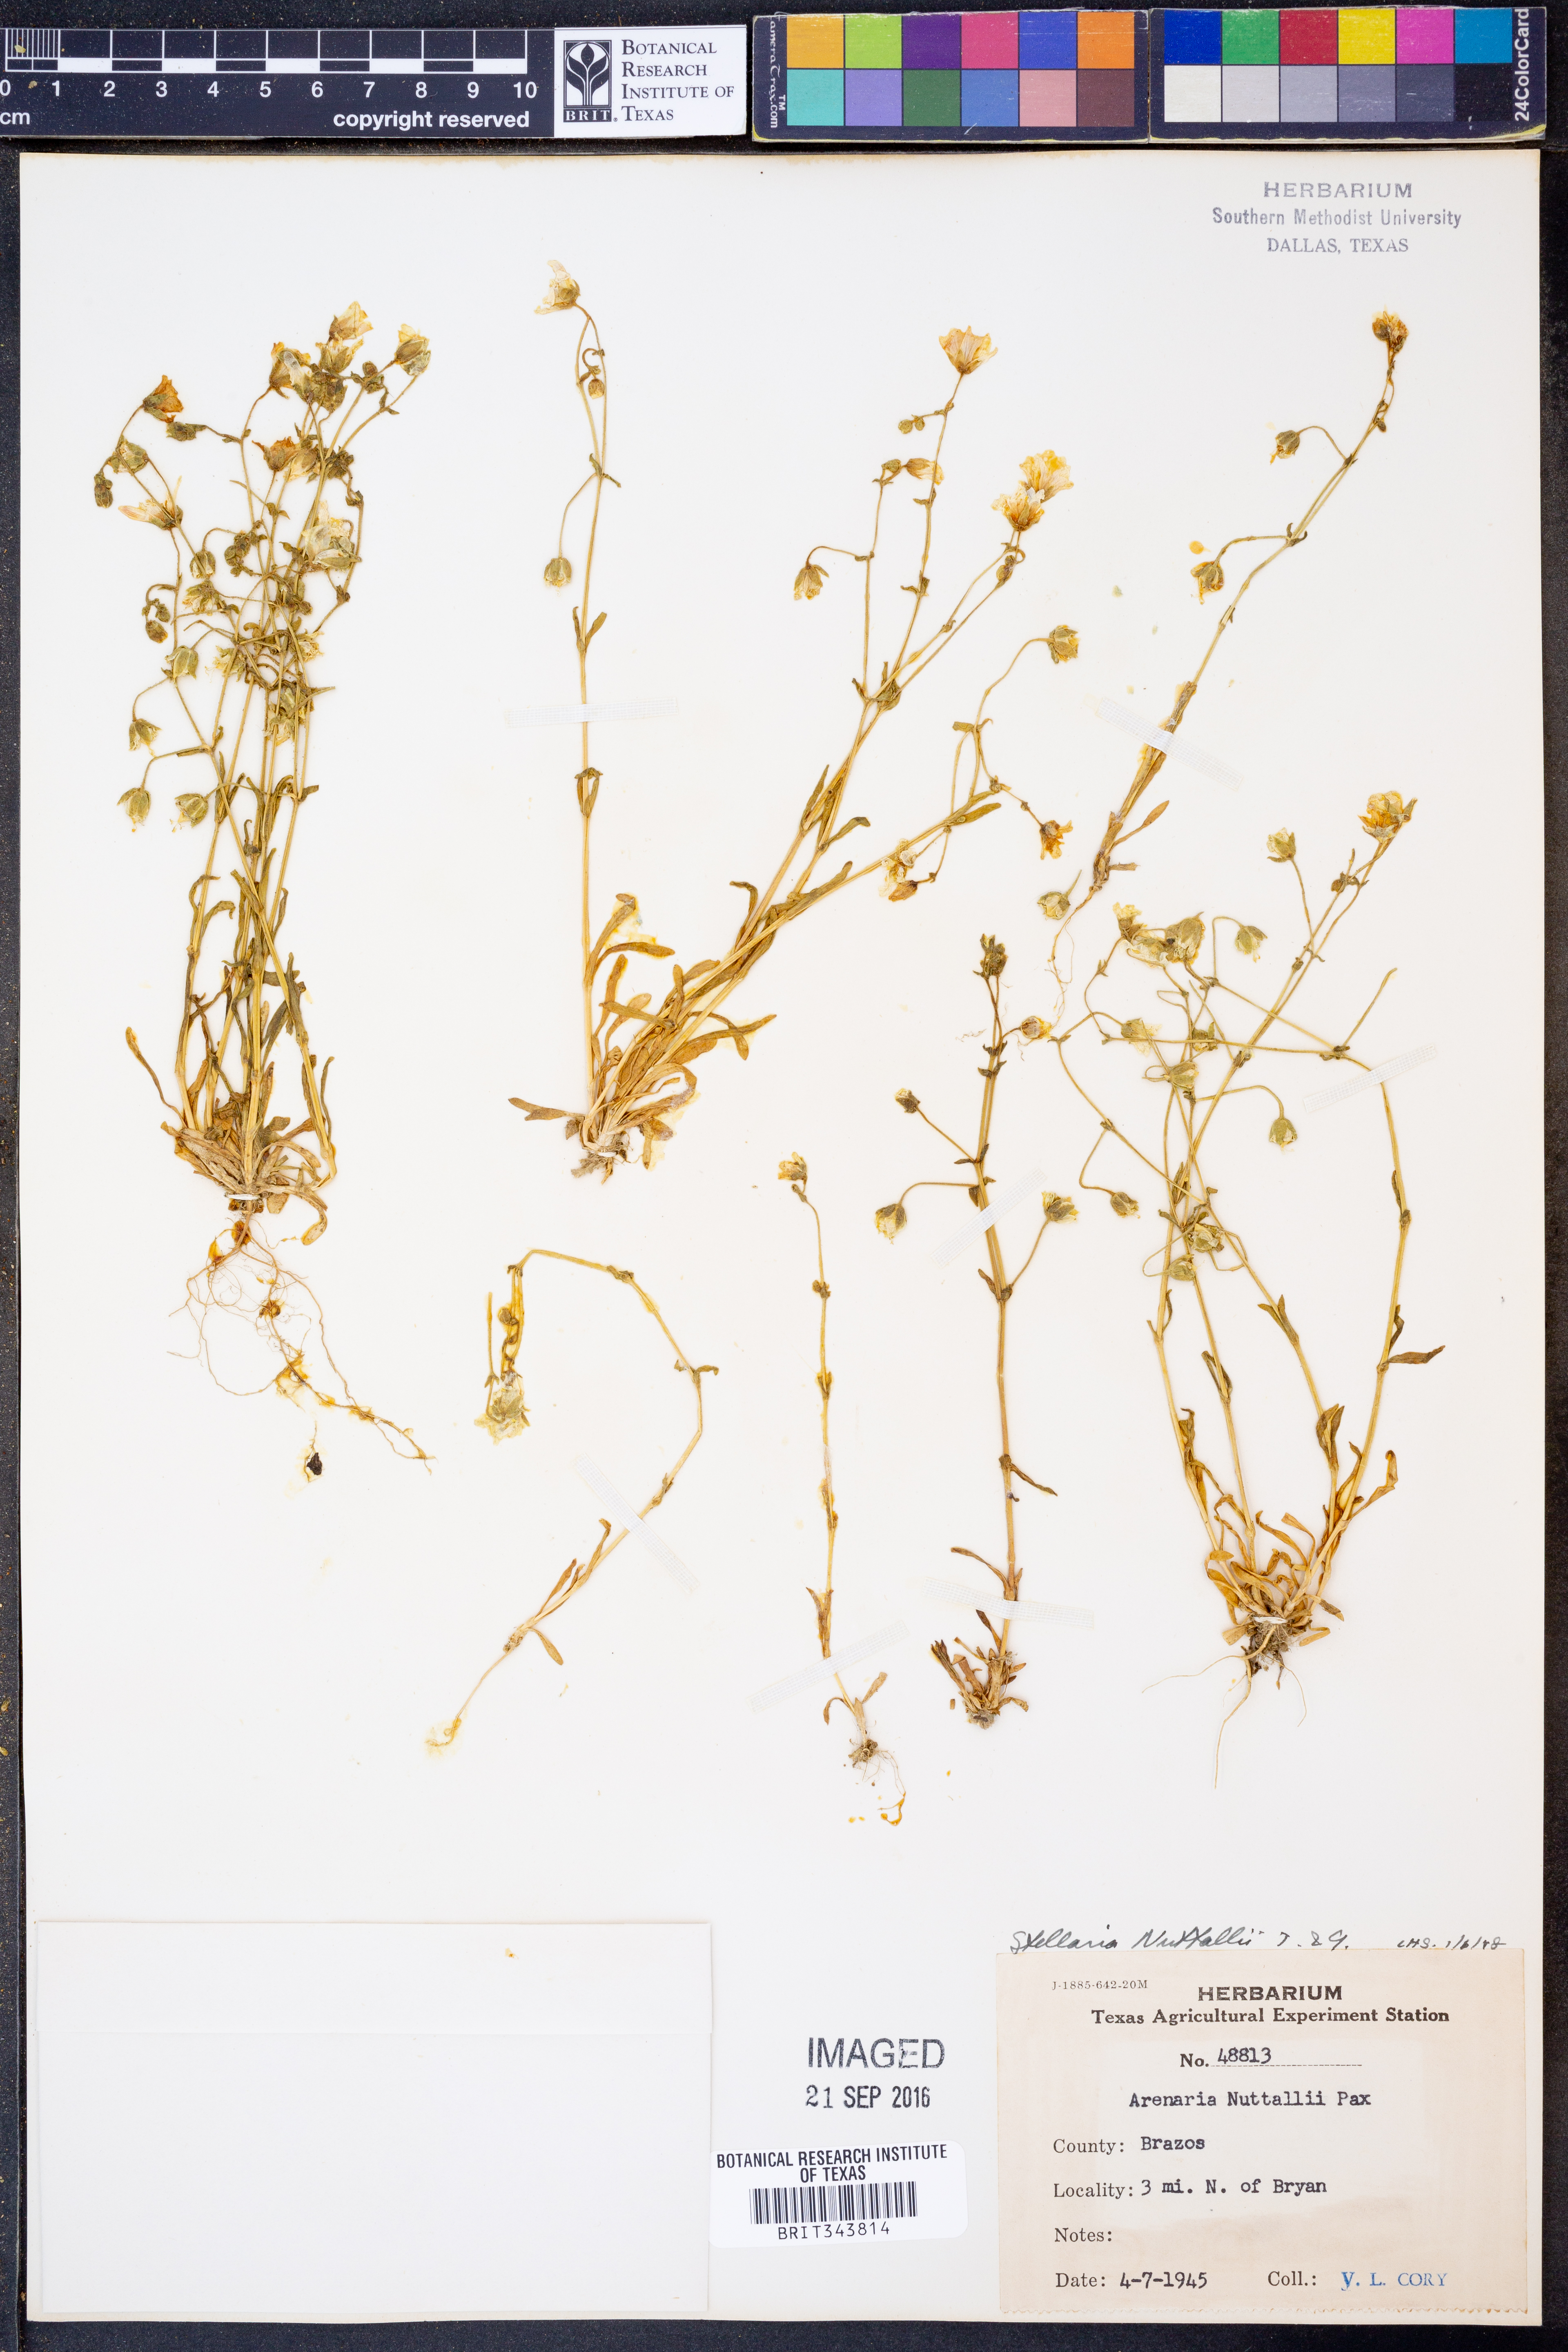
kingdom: Plantae
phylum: Tracheophyta
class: Magnoliopsida
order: Caryophyllales
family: Caryophyllaceae
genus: Geocarpon
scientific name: Geocarpon nuttallii
